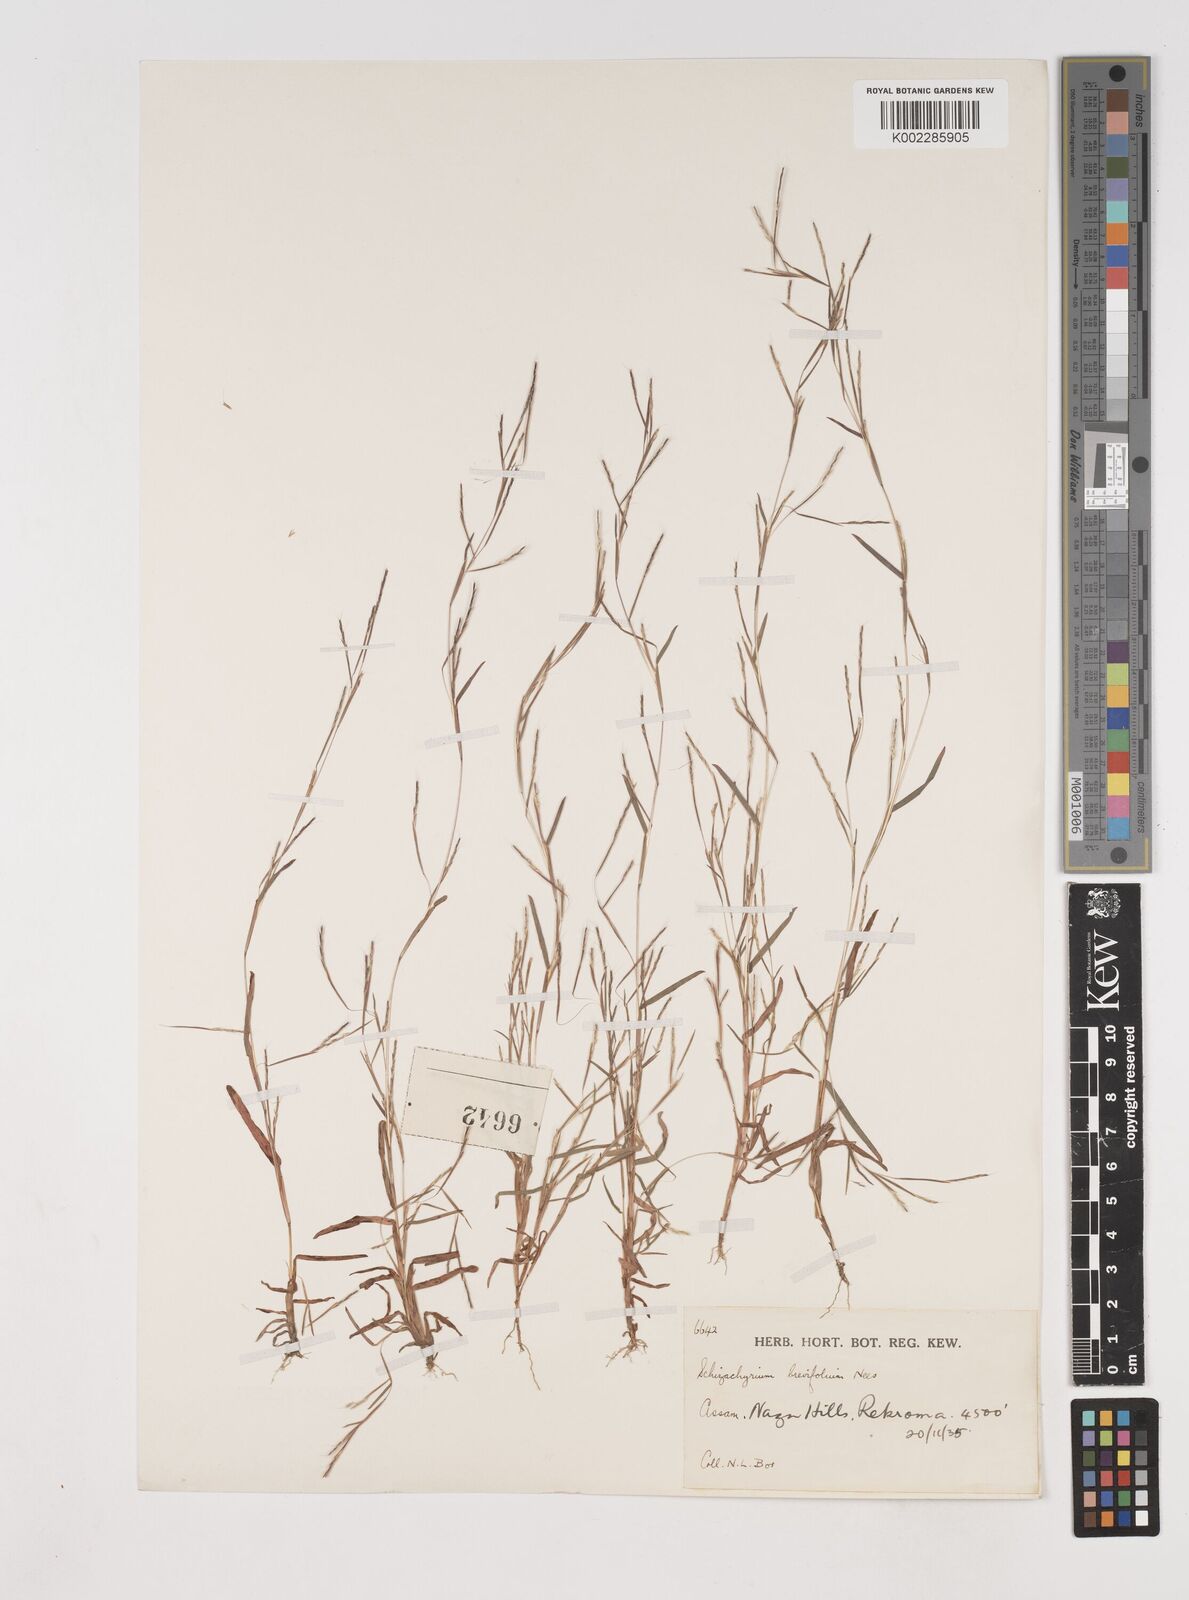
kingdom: Plantae
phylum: Tracheophyta
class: Liliopsida
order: Poales
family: Poaceae
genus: Schizachyrium
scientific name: Schizachyrium brevifolium
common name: Serillo dulce
